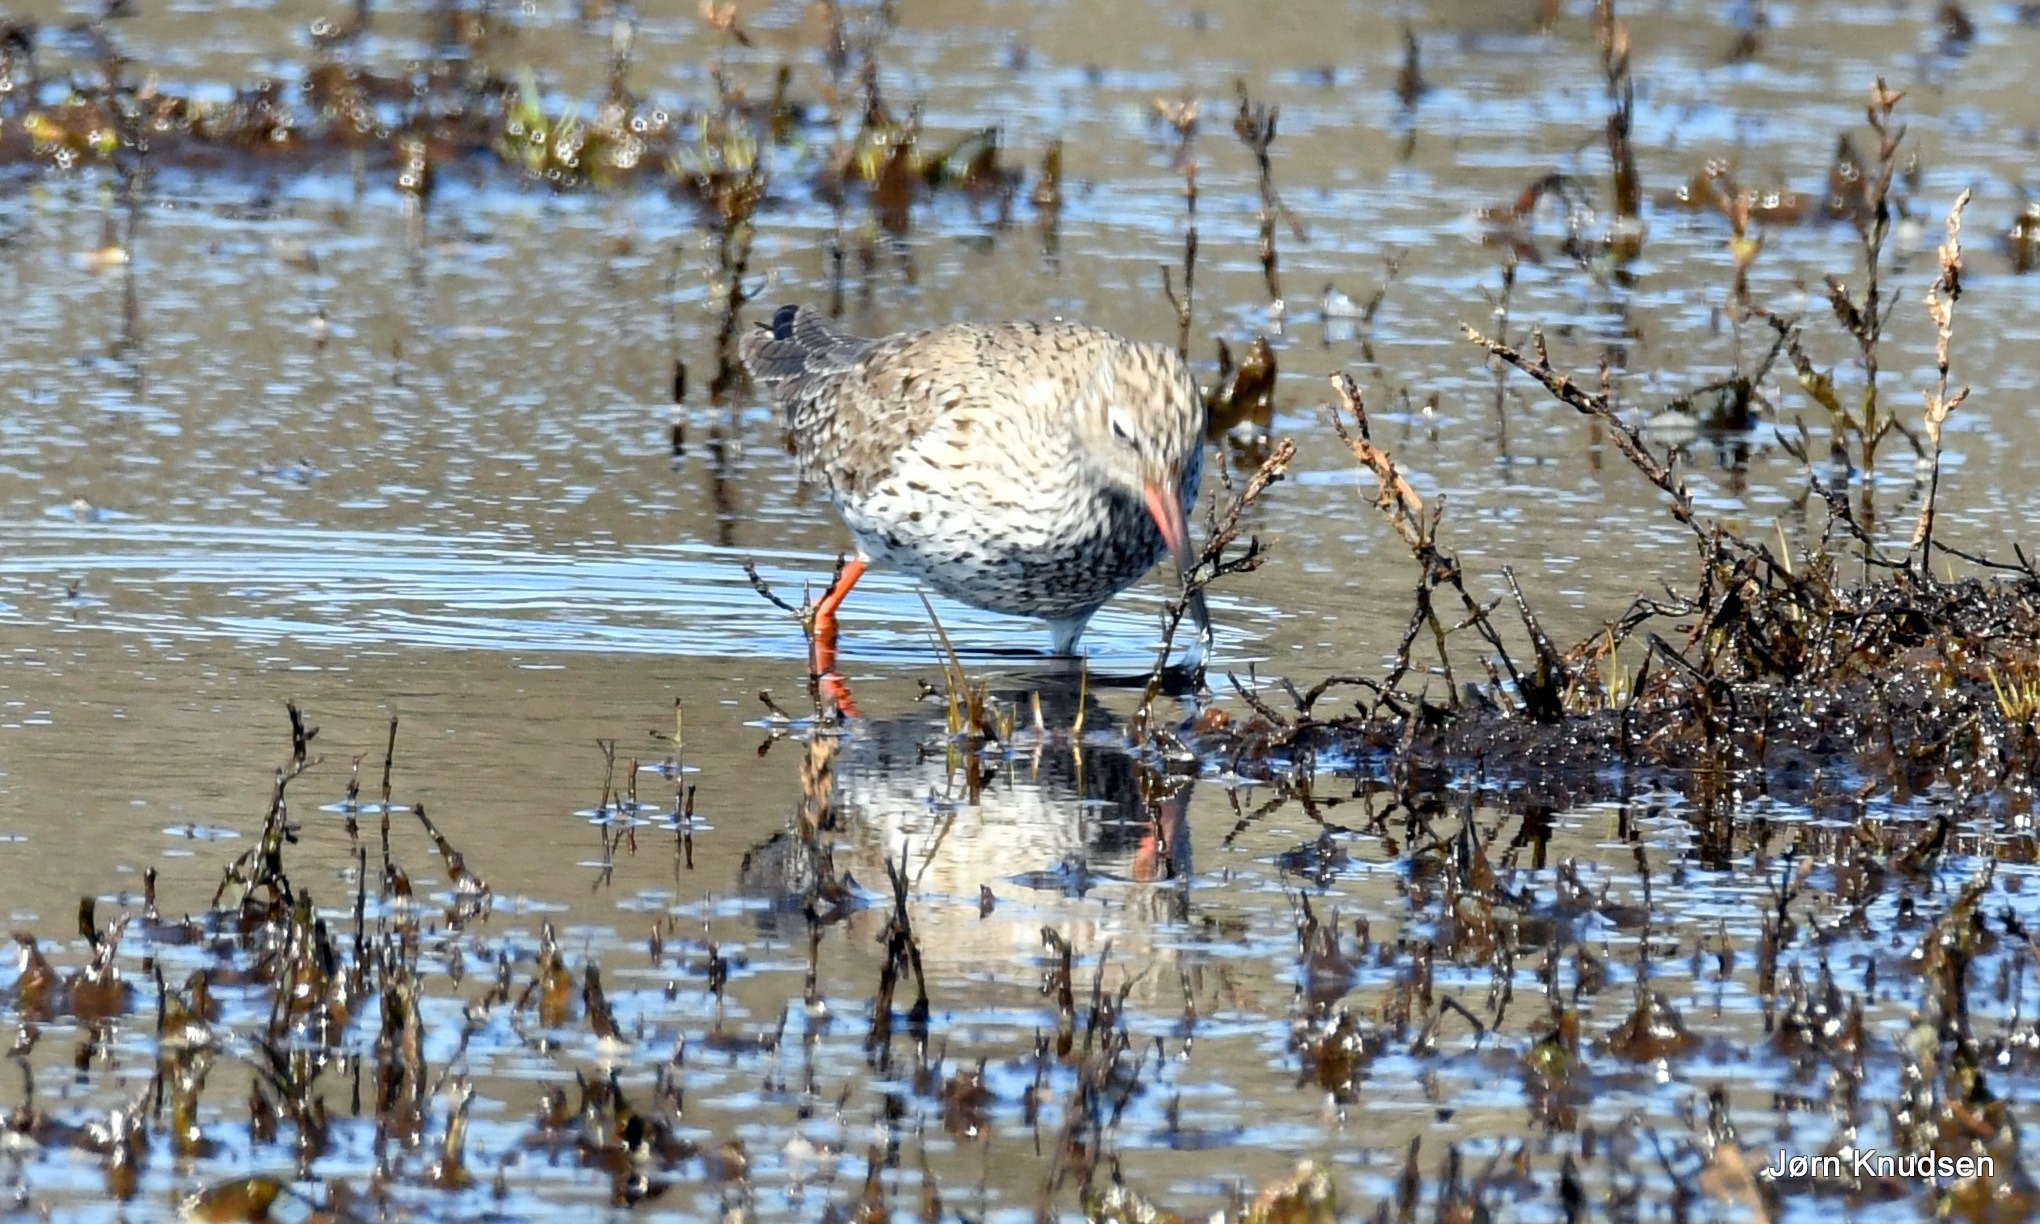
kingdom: Animalia
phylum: Chordata
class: Aves
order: Charadriiformes
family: Scolopacidae
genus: Tringa
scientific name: Tringa totanus
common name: Rødben
